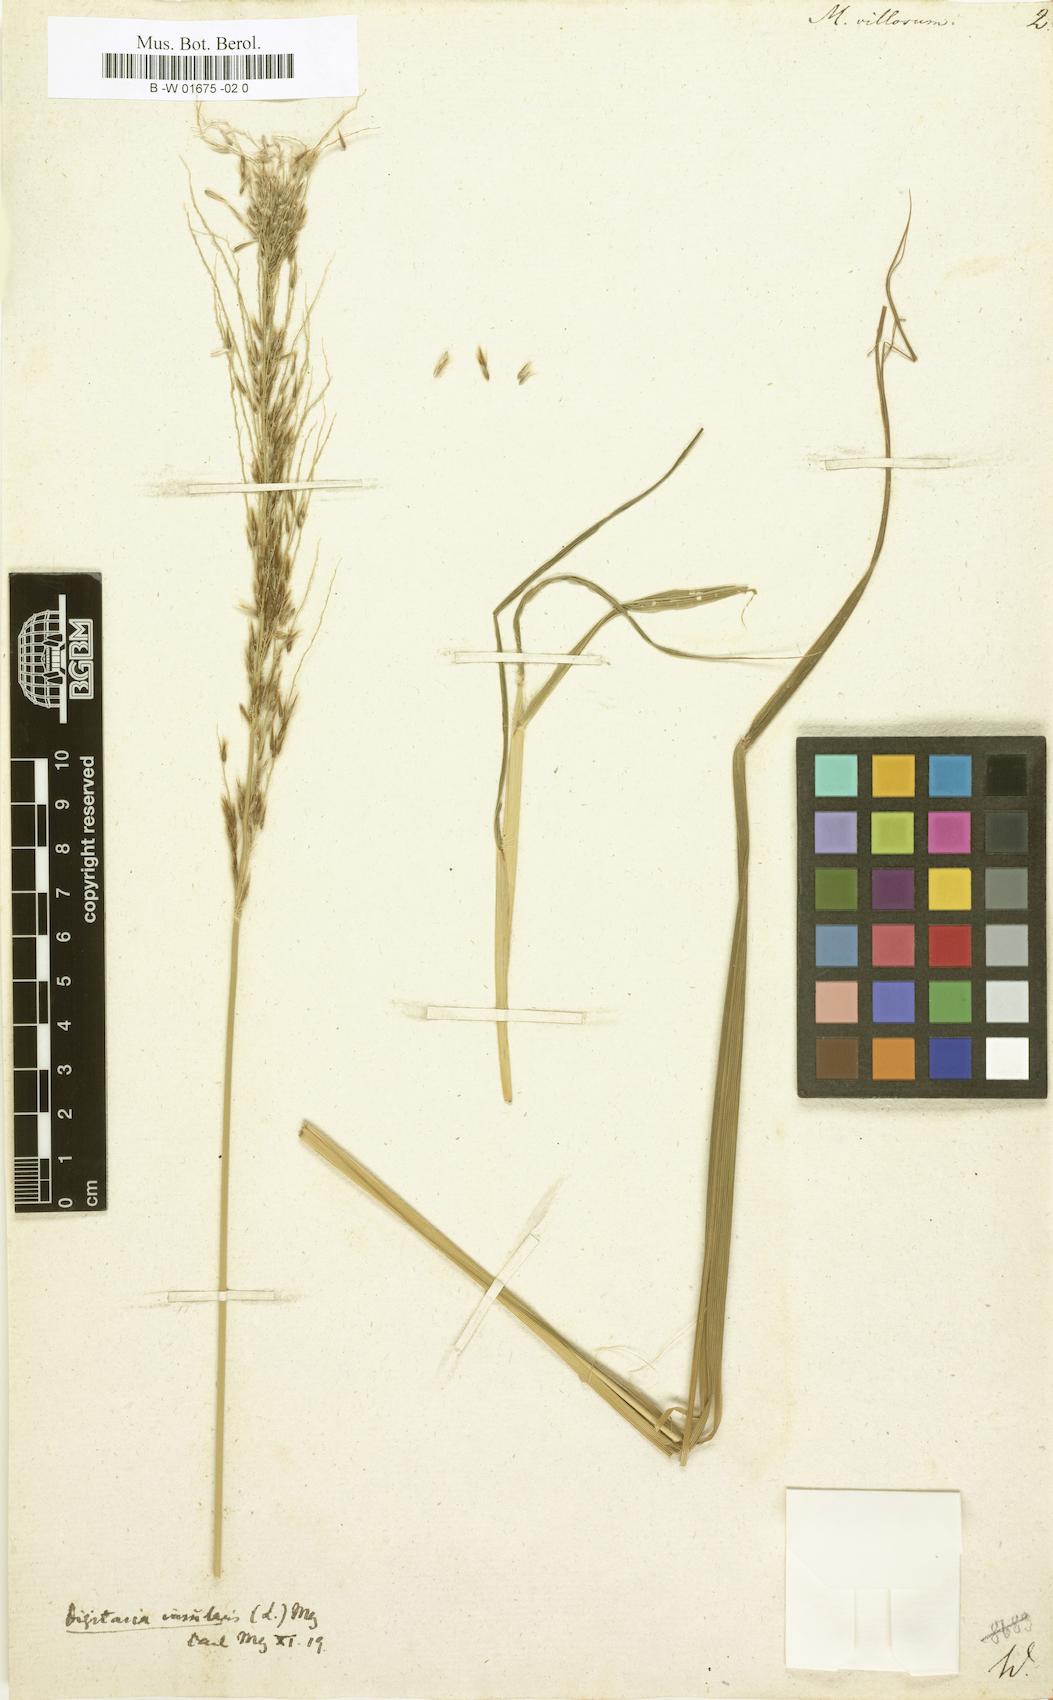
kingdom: Plantae
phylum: Tracheophyta
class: Liliopsida
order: Poales
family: Poaceae
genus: Digitaria
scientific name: Digitaria insularis
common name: Sourgrass
